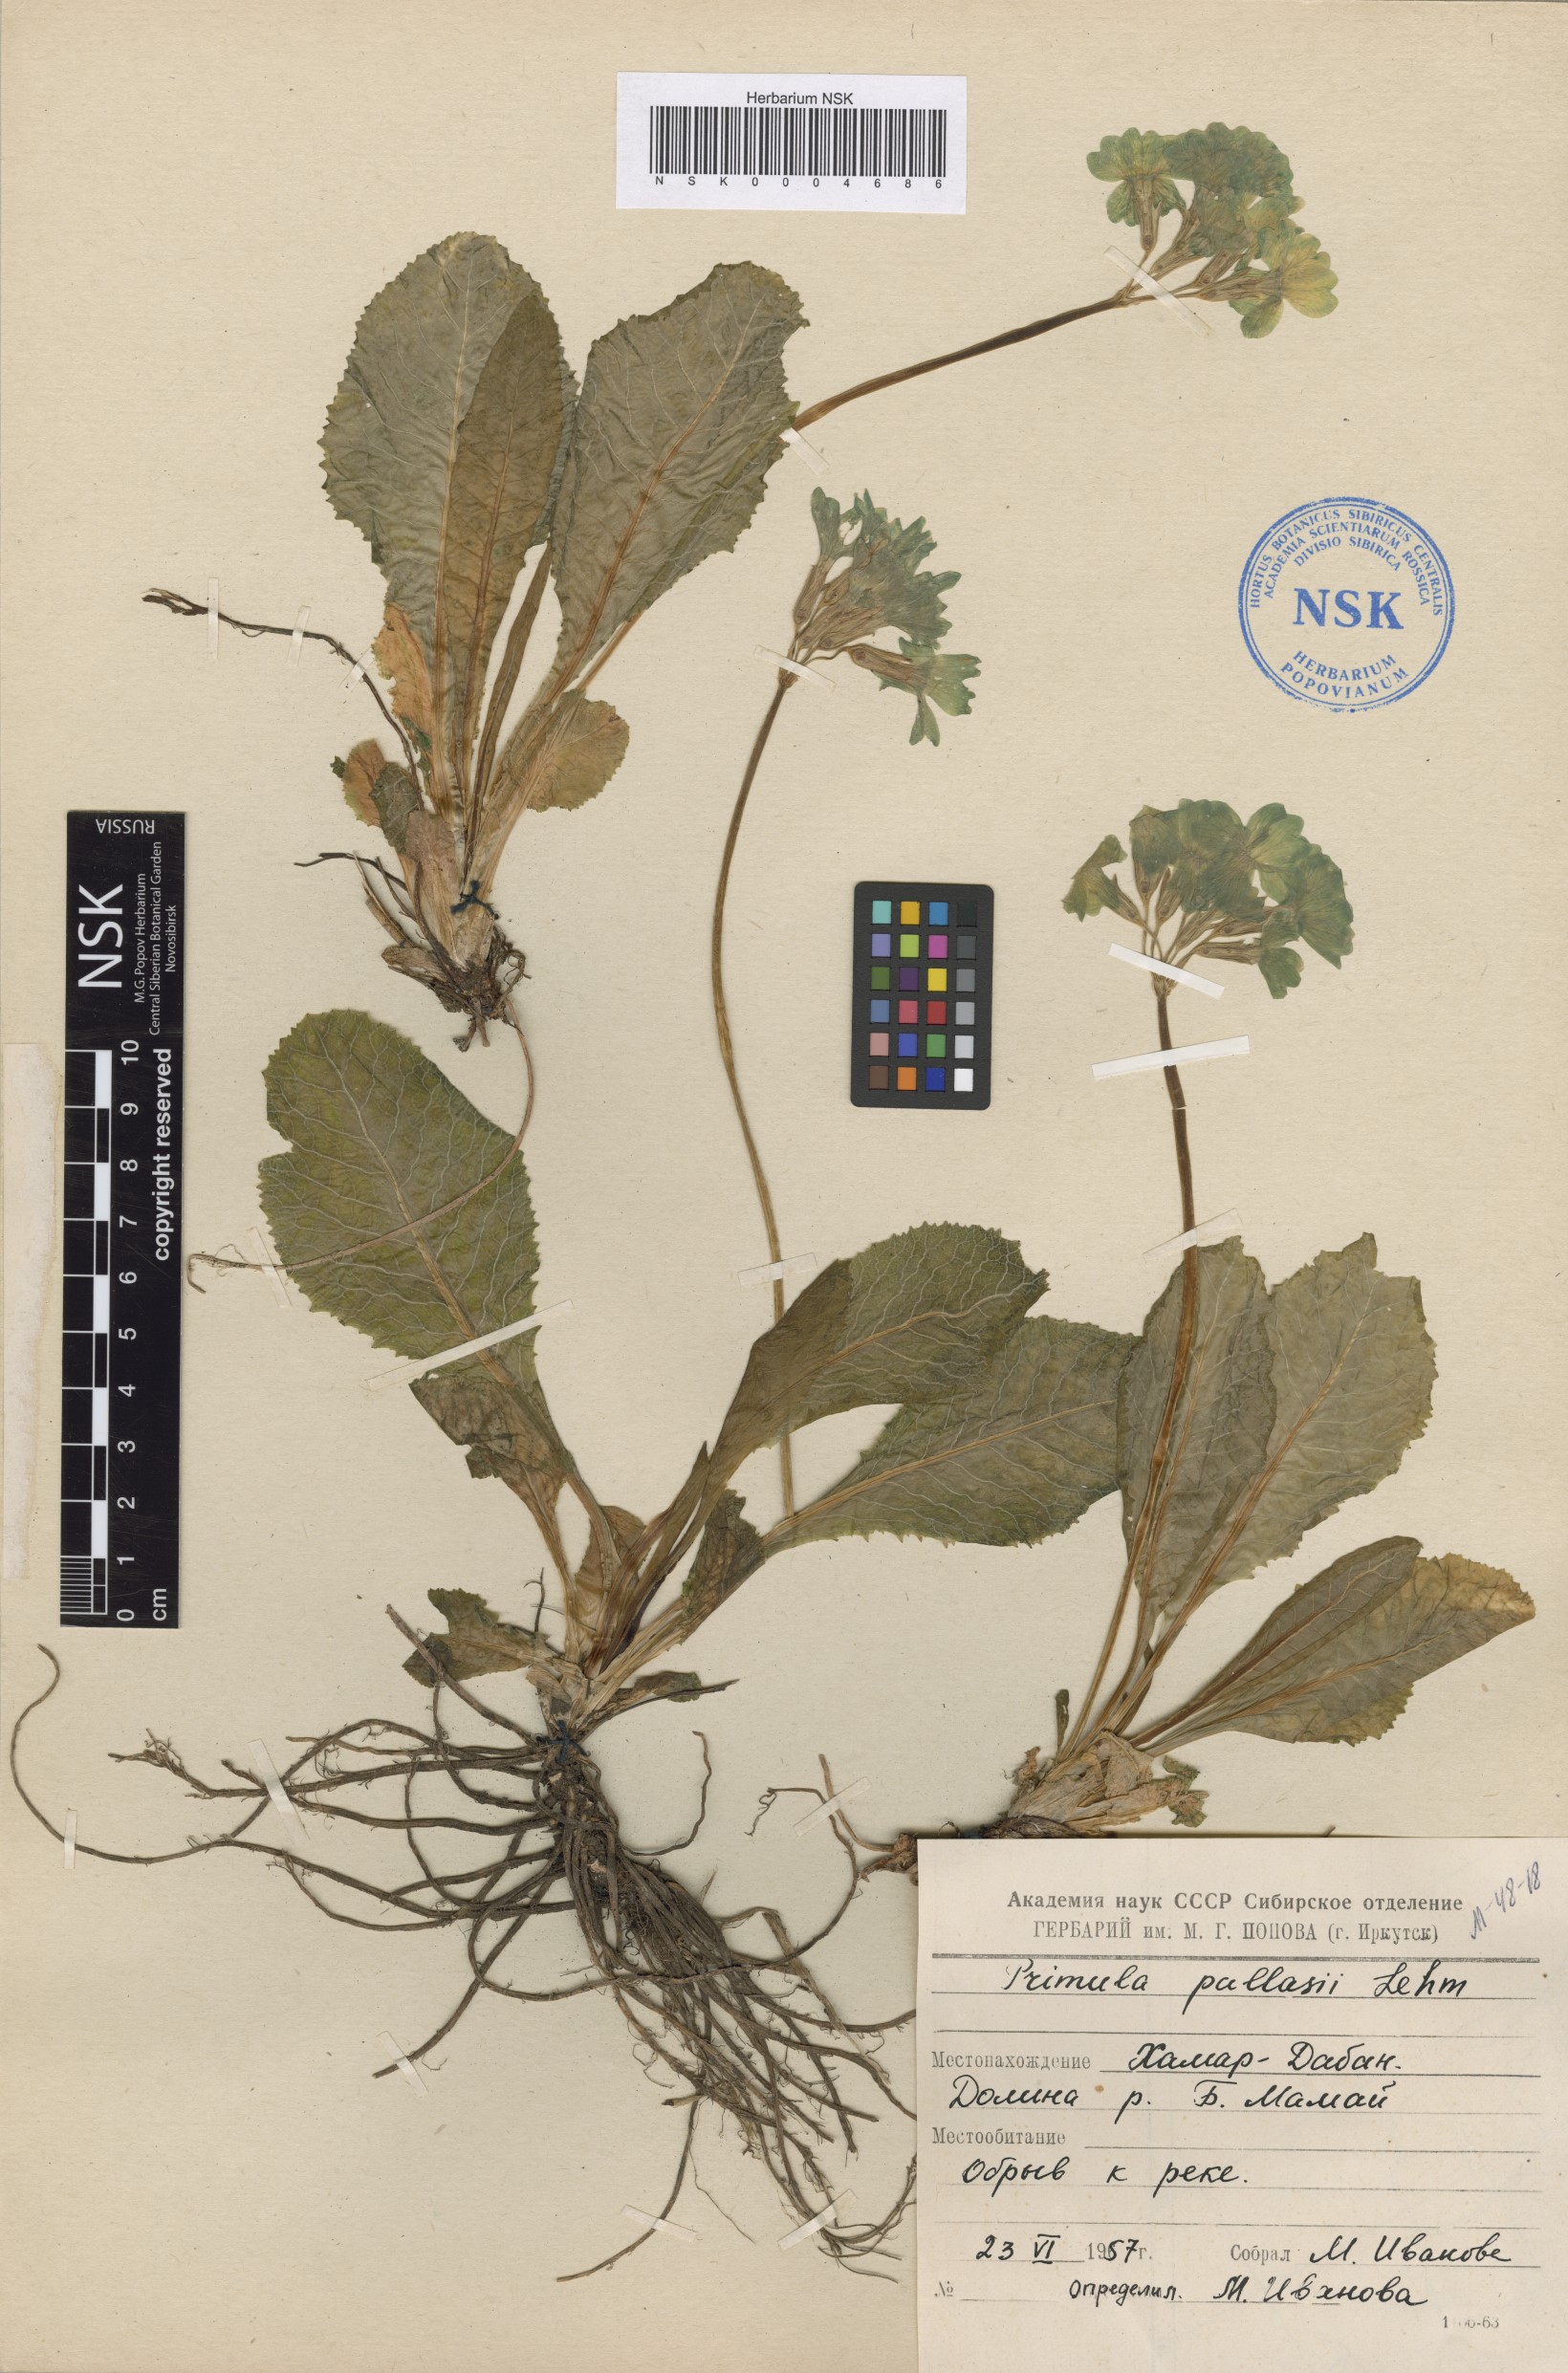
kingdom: Plantae
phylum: Tracheophyta
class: Magnoliopsida
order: Ericales
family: Primulaceae
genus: Primula
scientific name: Primula elatior
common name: Oxlip
